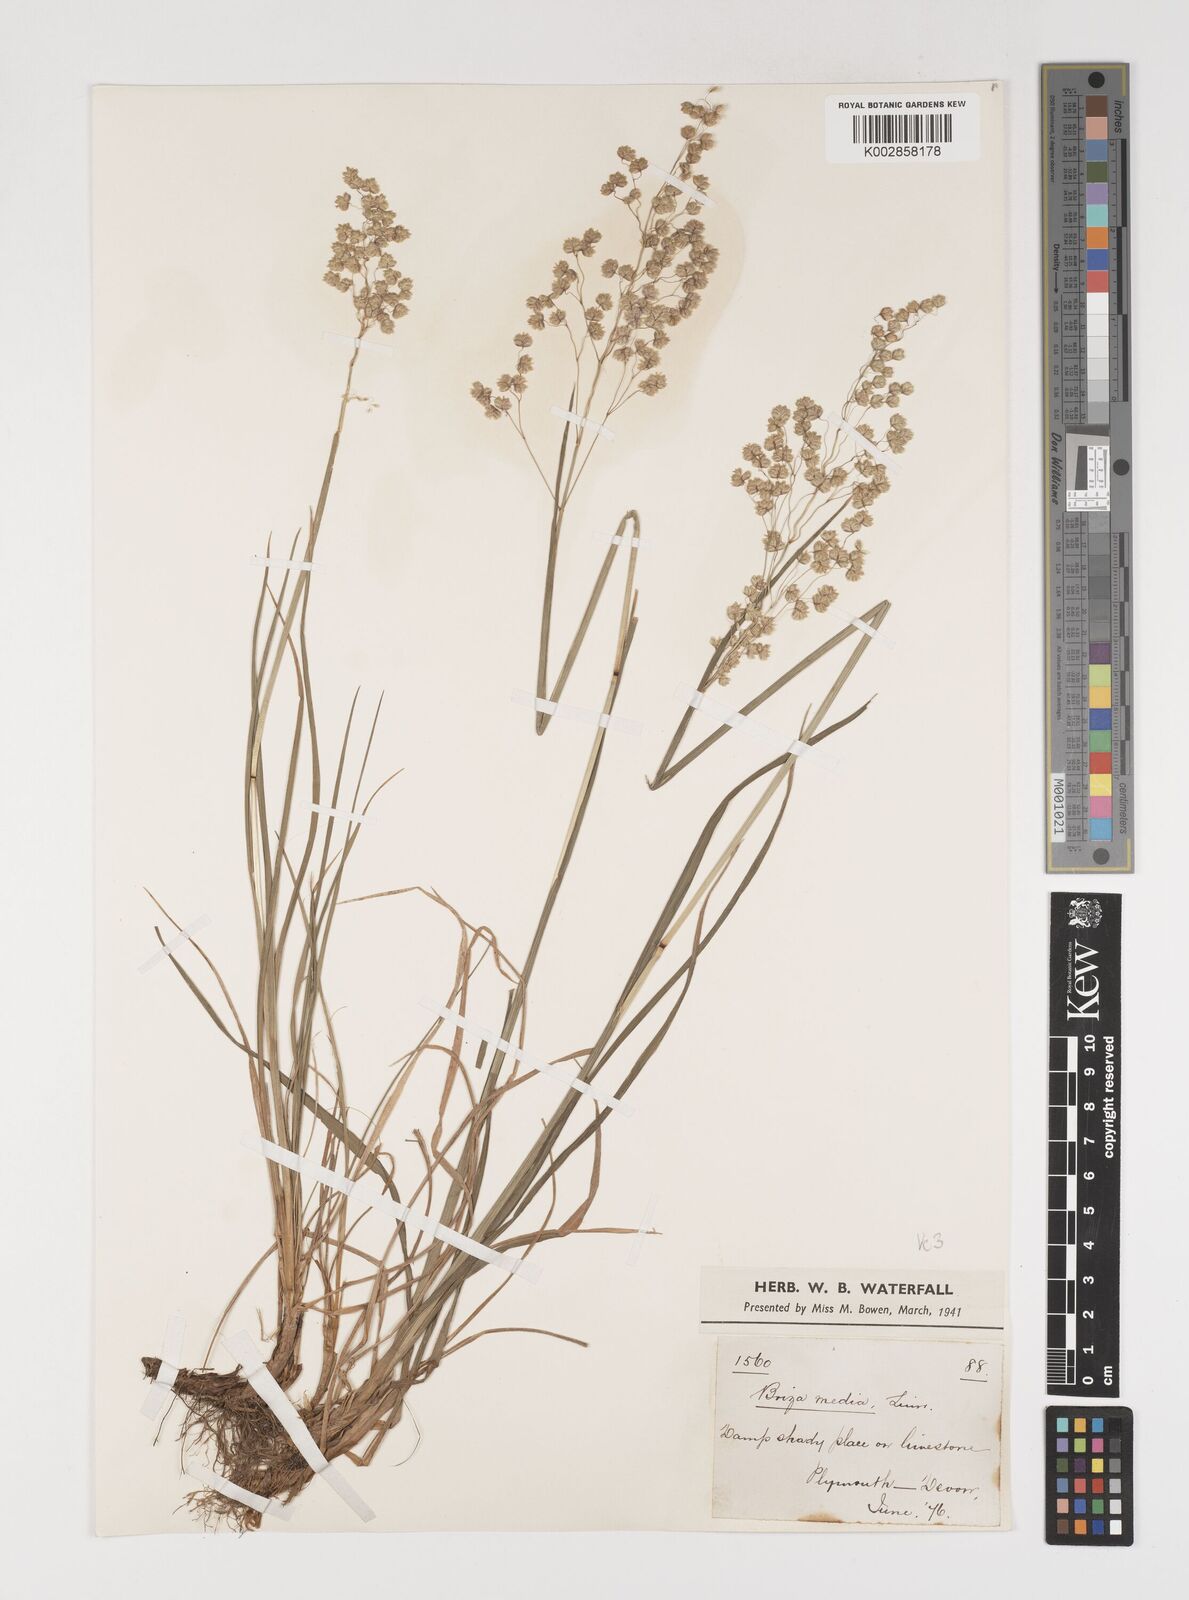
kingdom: Plantae
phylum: Tracheophyta
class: Liliopsida
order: Poales
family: Poaceae
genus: Briza
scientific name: Briza media
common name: Quaking grass
